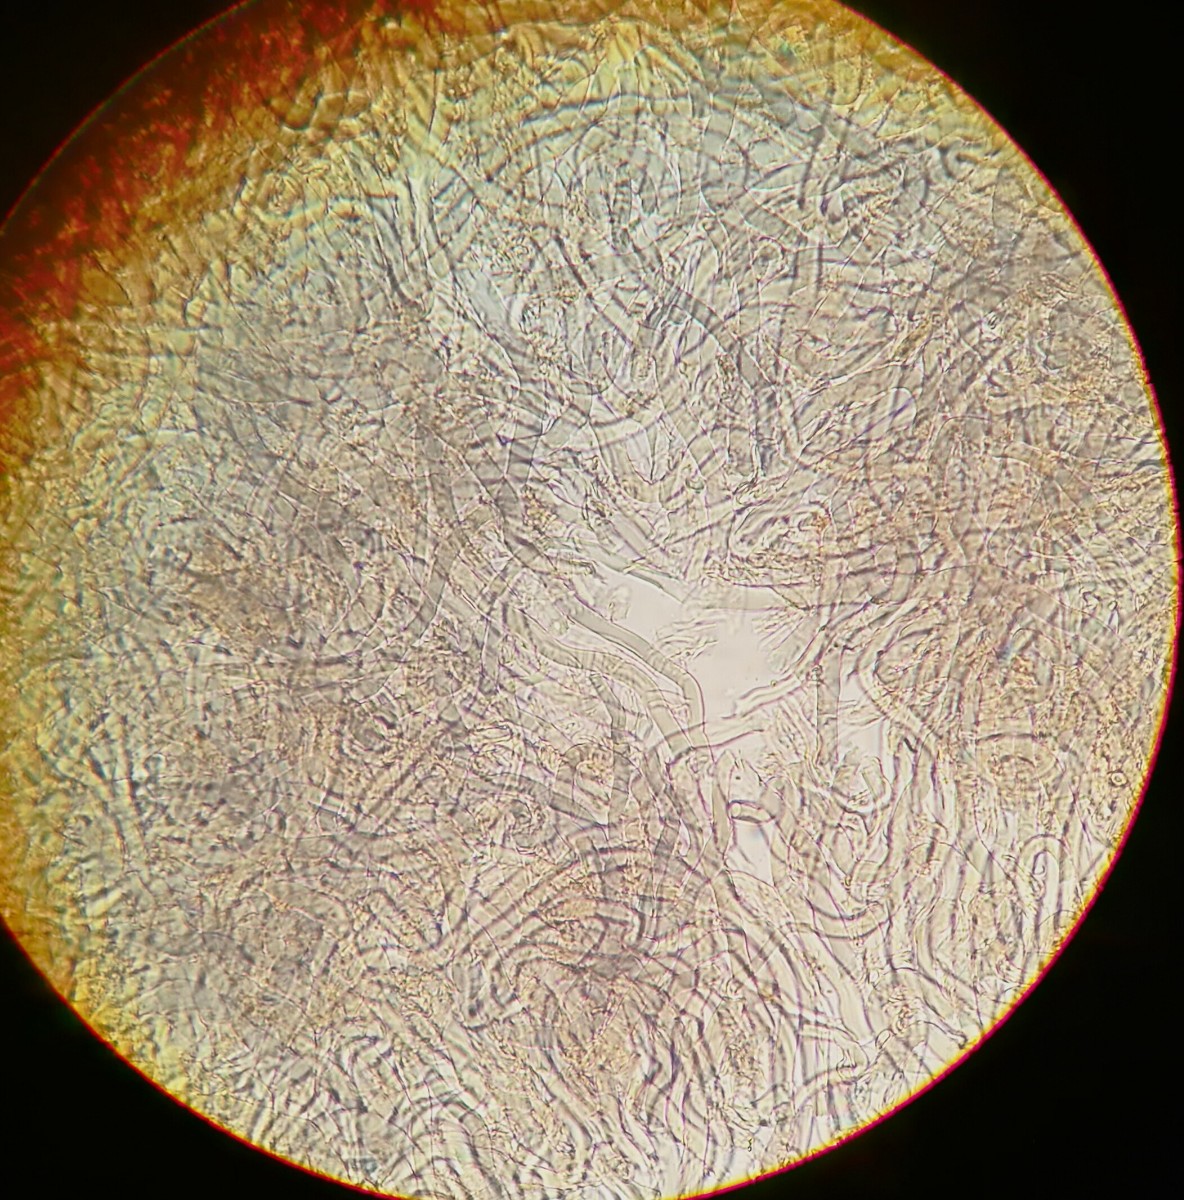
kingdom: Fungi
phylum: Basidiomycota
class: Agaricomycetes
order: Russulales
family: Auriscalpiaceae
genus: Lentinellus
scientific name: Lentinellus ursinus
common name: børstehåret savbladhat
